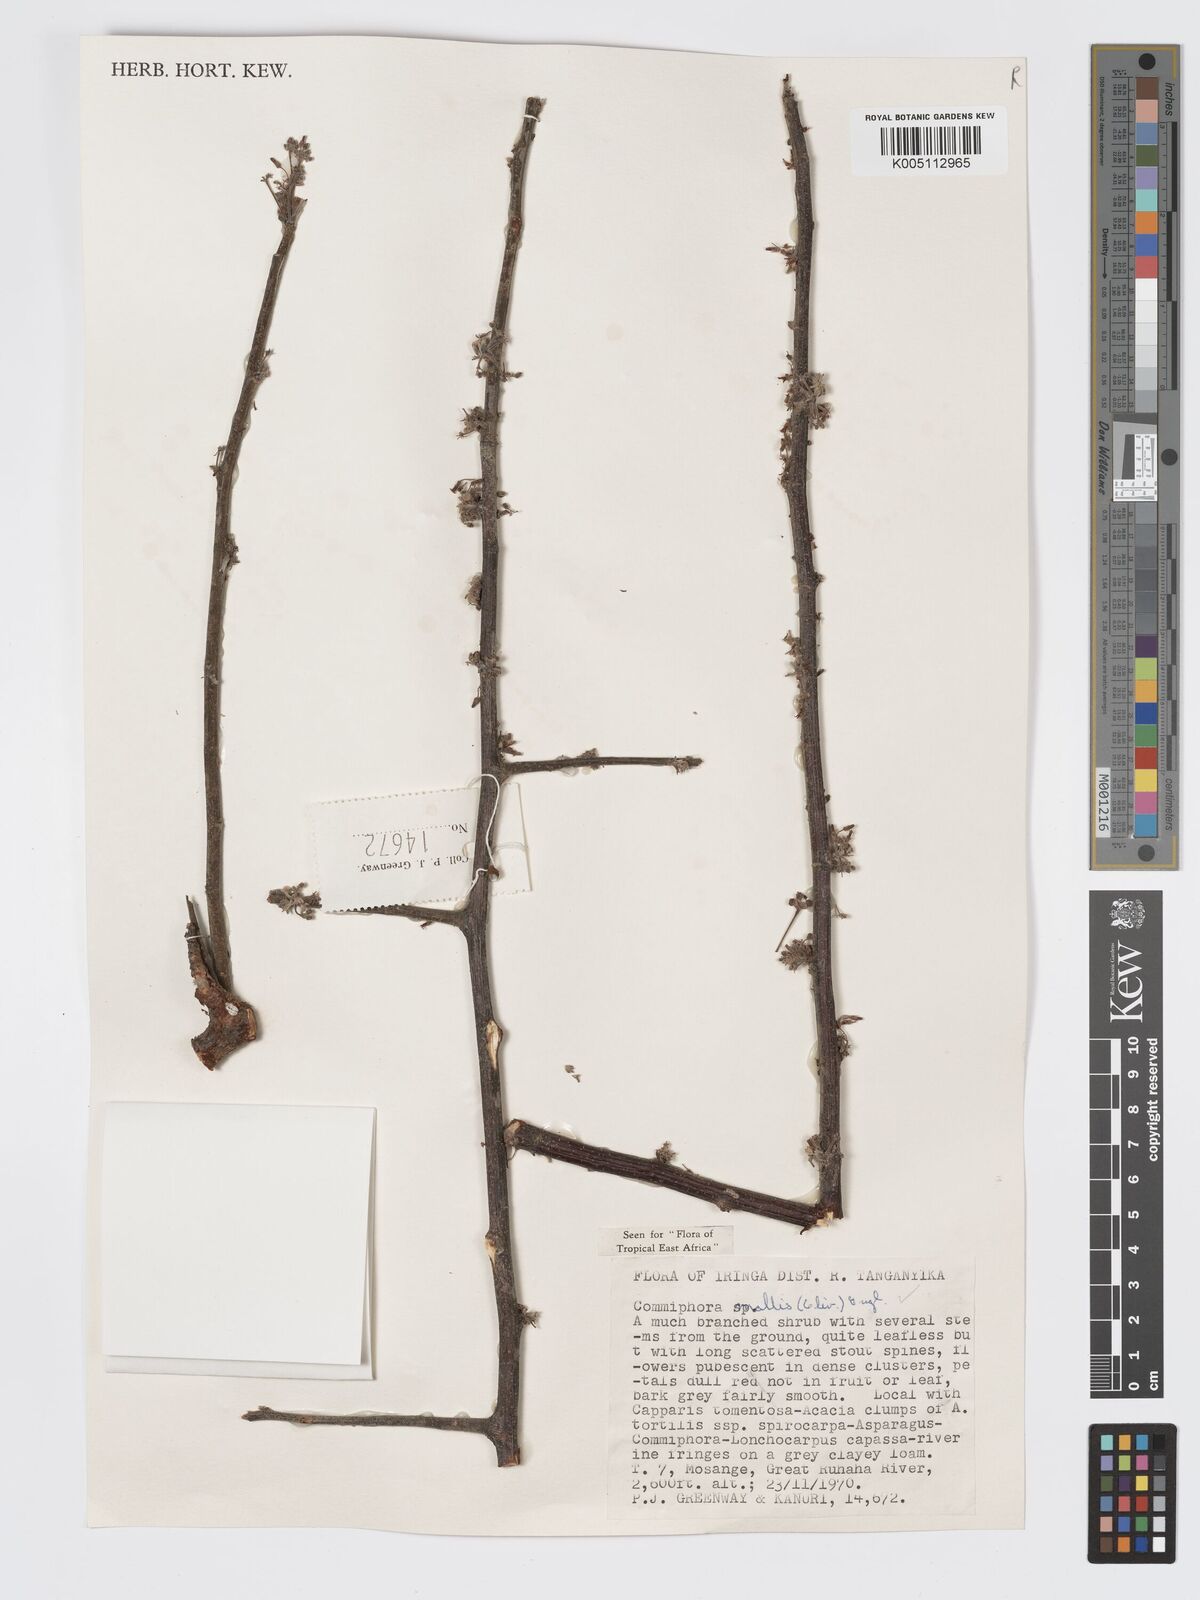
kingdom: Plantae
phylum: Tracheophyta
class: Magnoliopsida
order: Sapindales
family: Burseraceae
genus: Commiphora
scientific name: Commiphora
